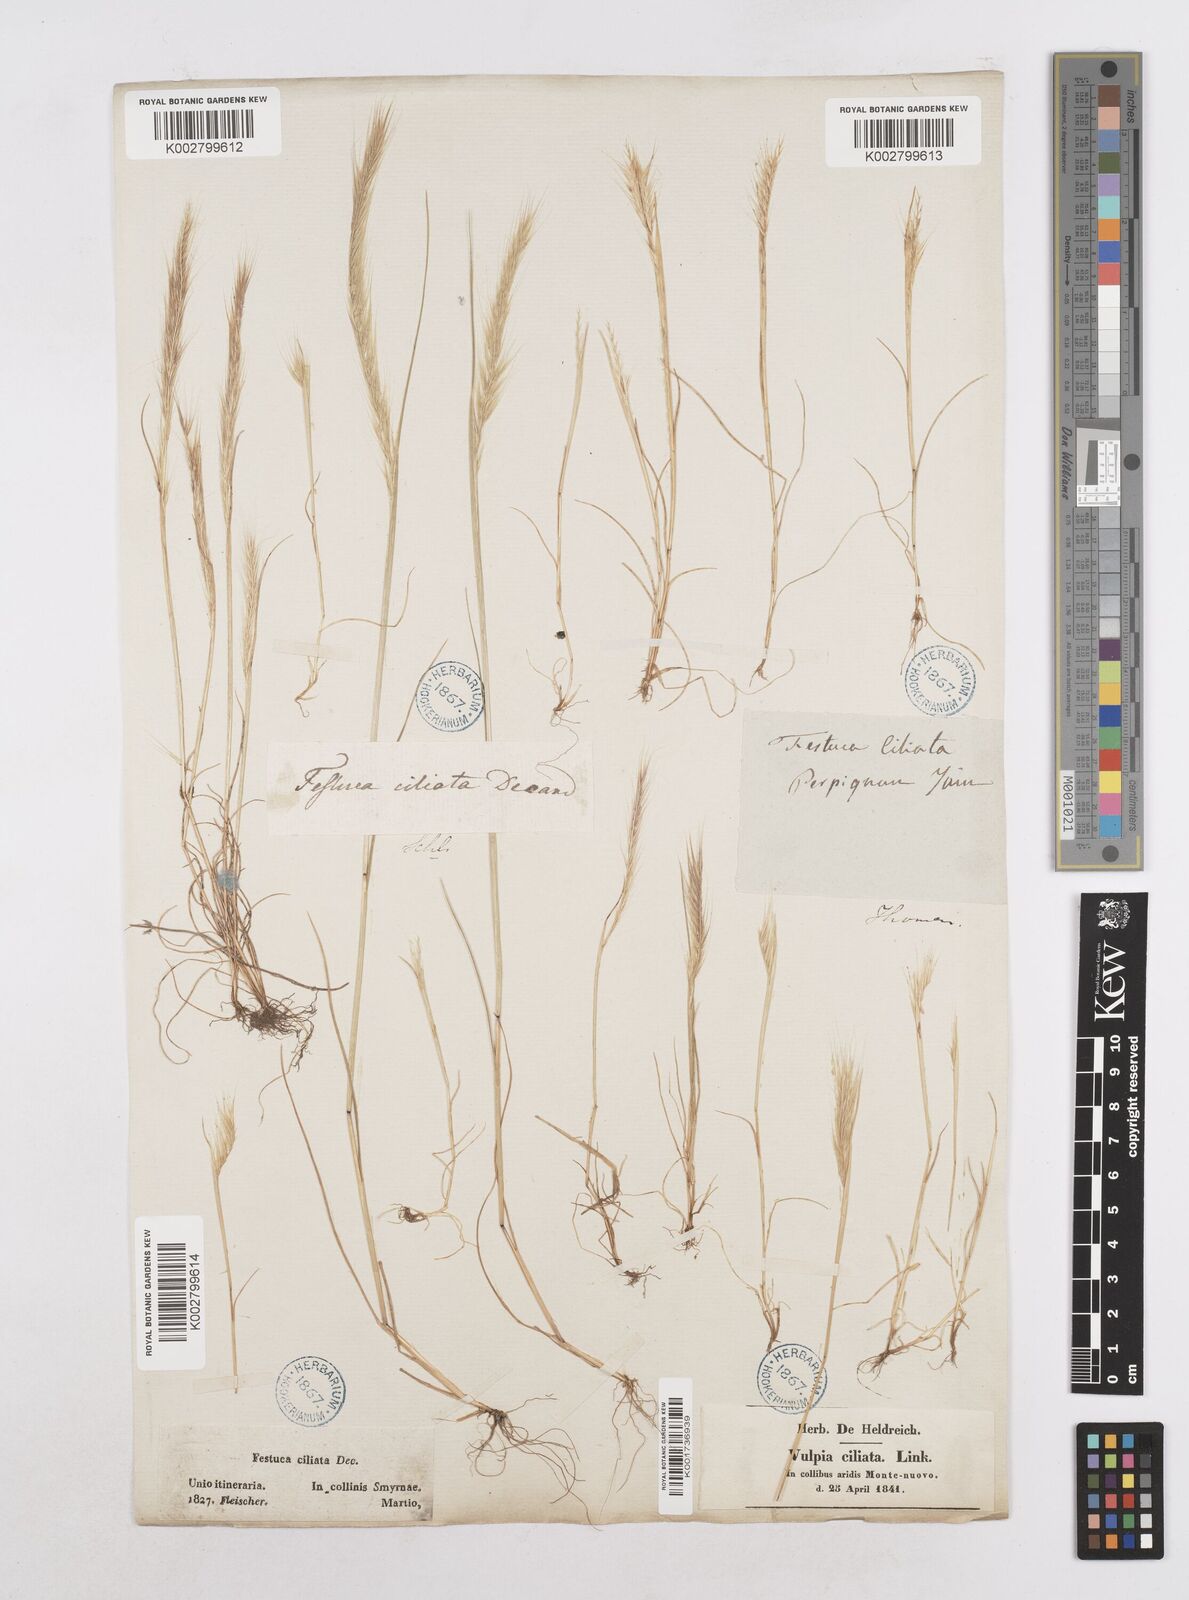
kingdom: Plantae
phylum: Tracheophyta
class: Liliopsida
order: Poales
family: Poaceae
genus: Festuca
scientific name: Festuca
